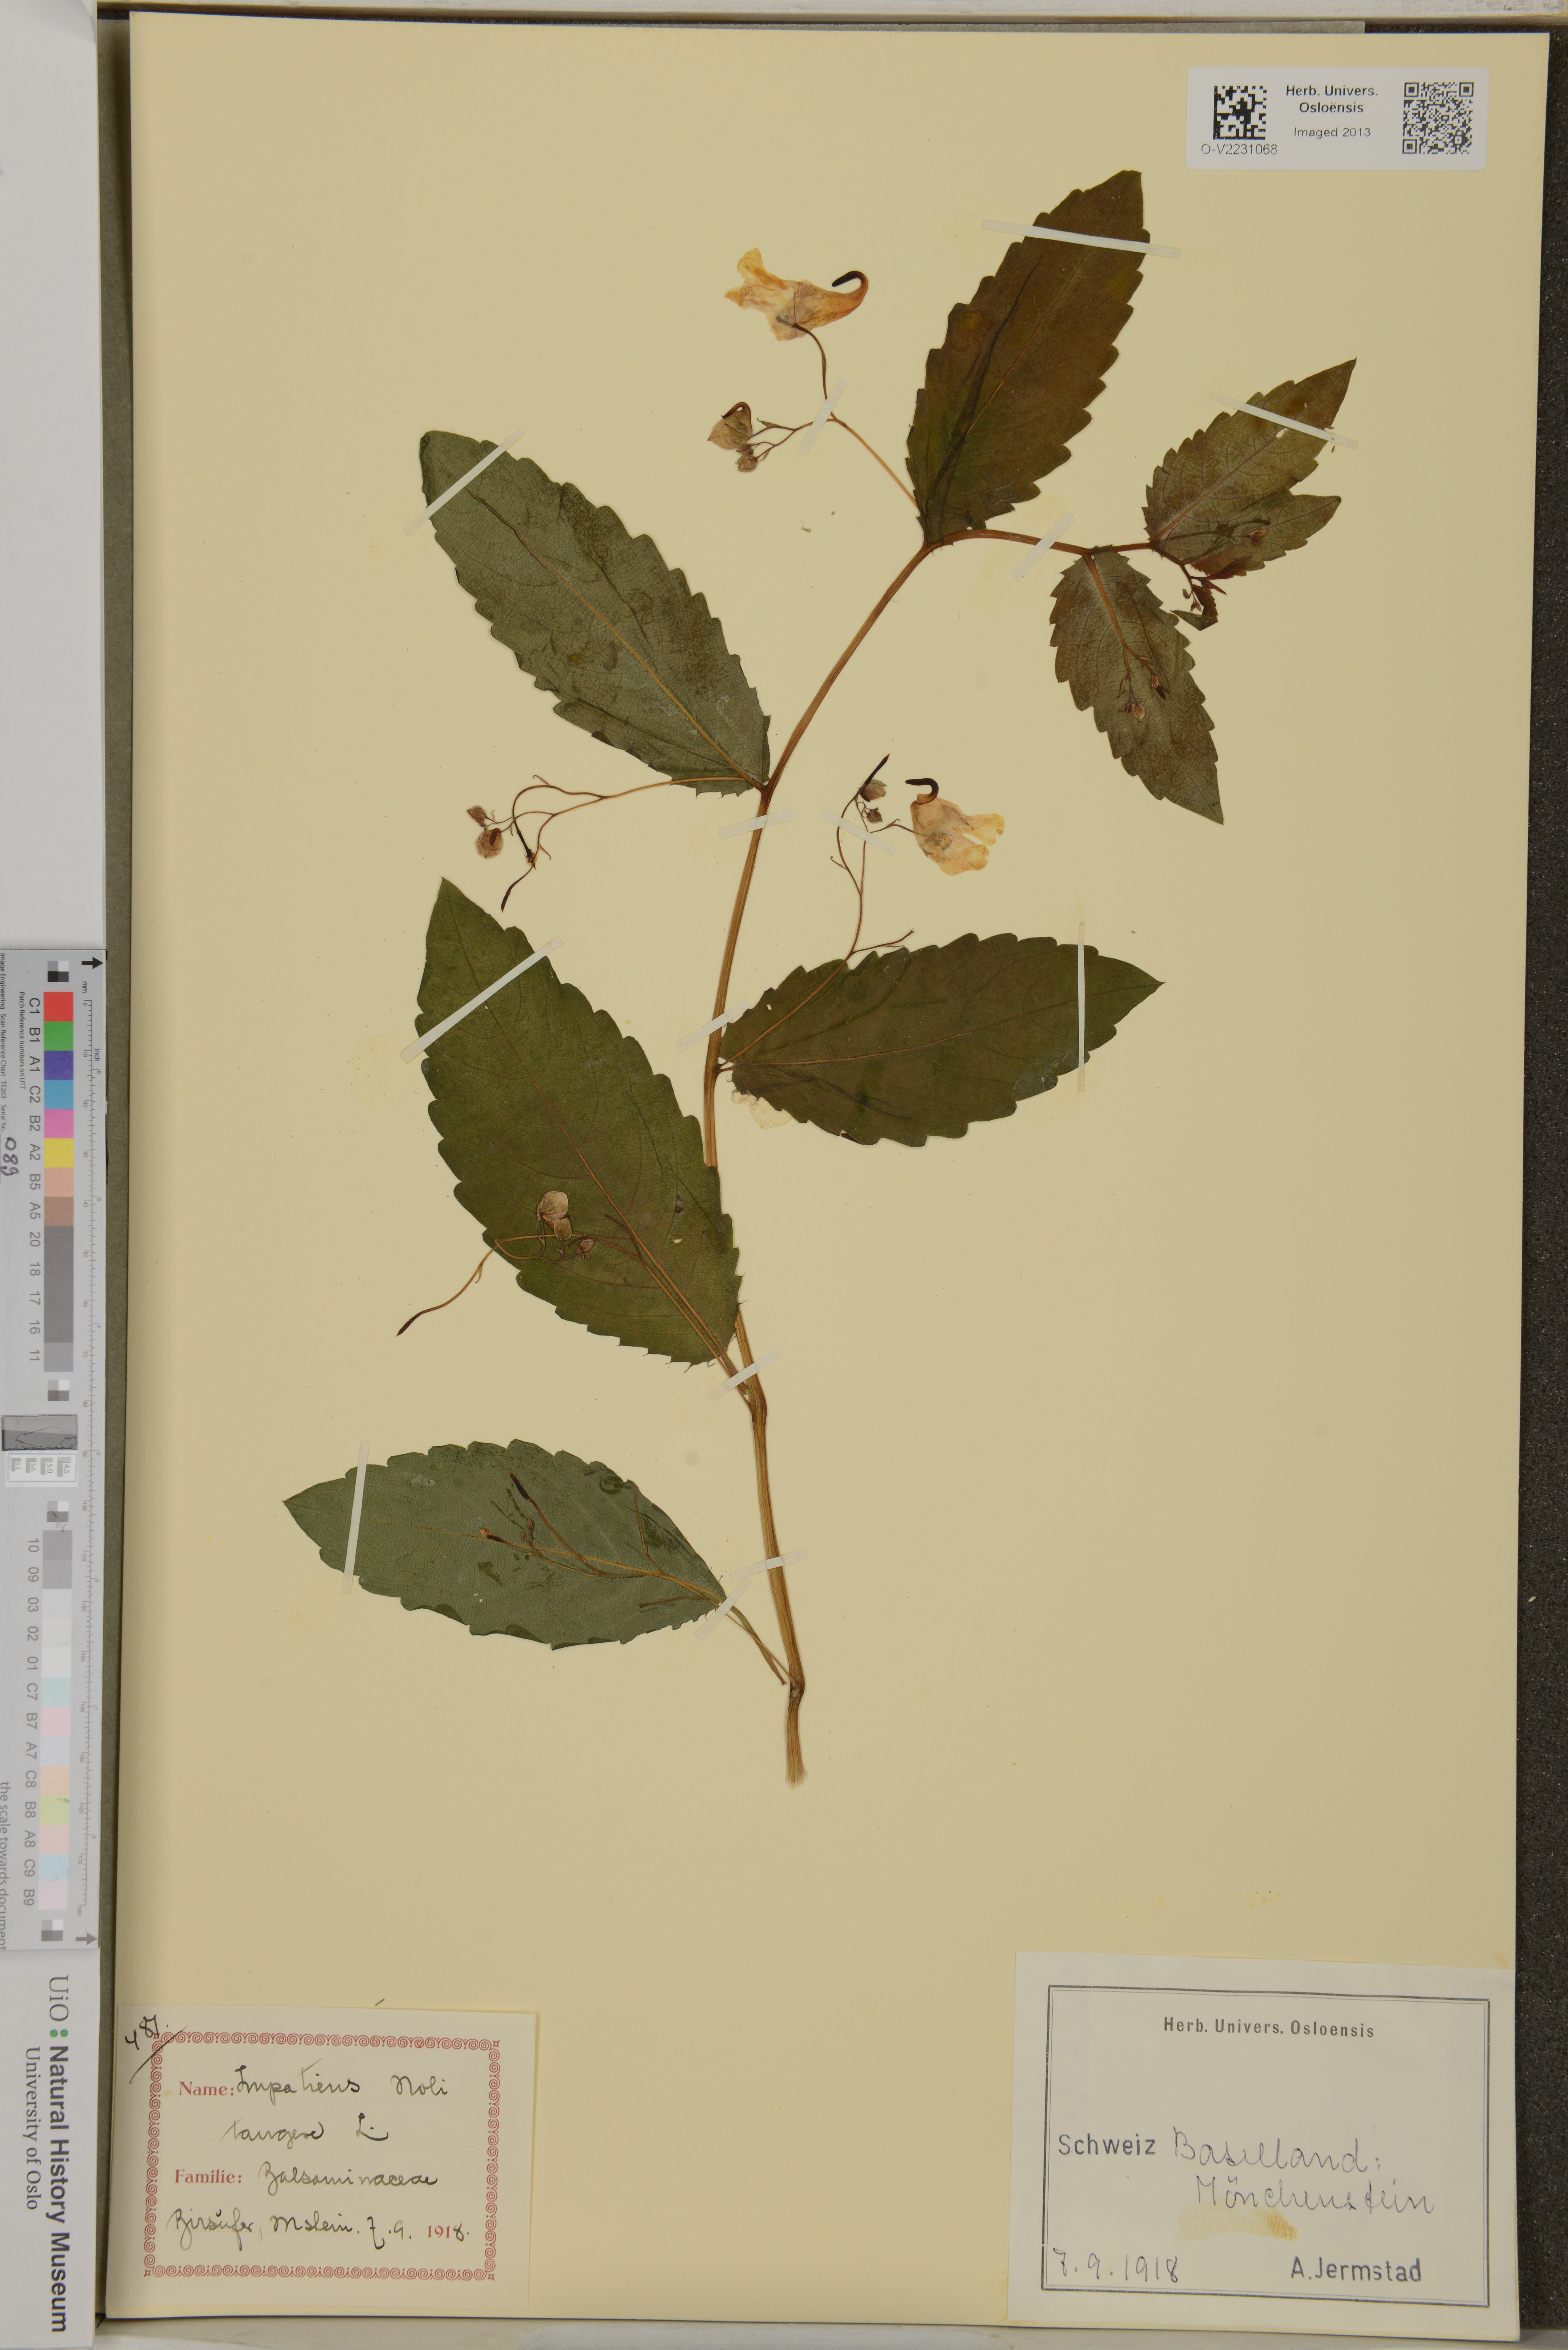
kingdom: Plantae
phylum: Tracheophyta
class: Magnoliopsida
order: Ericales
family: Balsaminaceae
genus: Impatiens
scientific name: Impatiens noli-tangere
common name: Touch-me-not balsam
